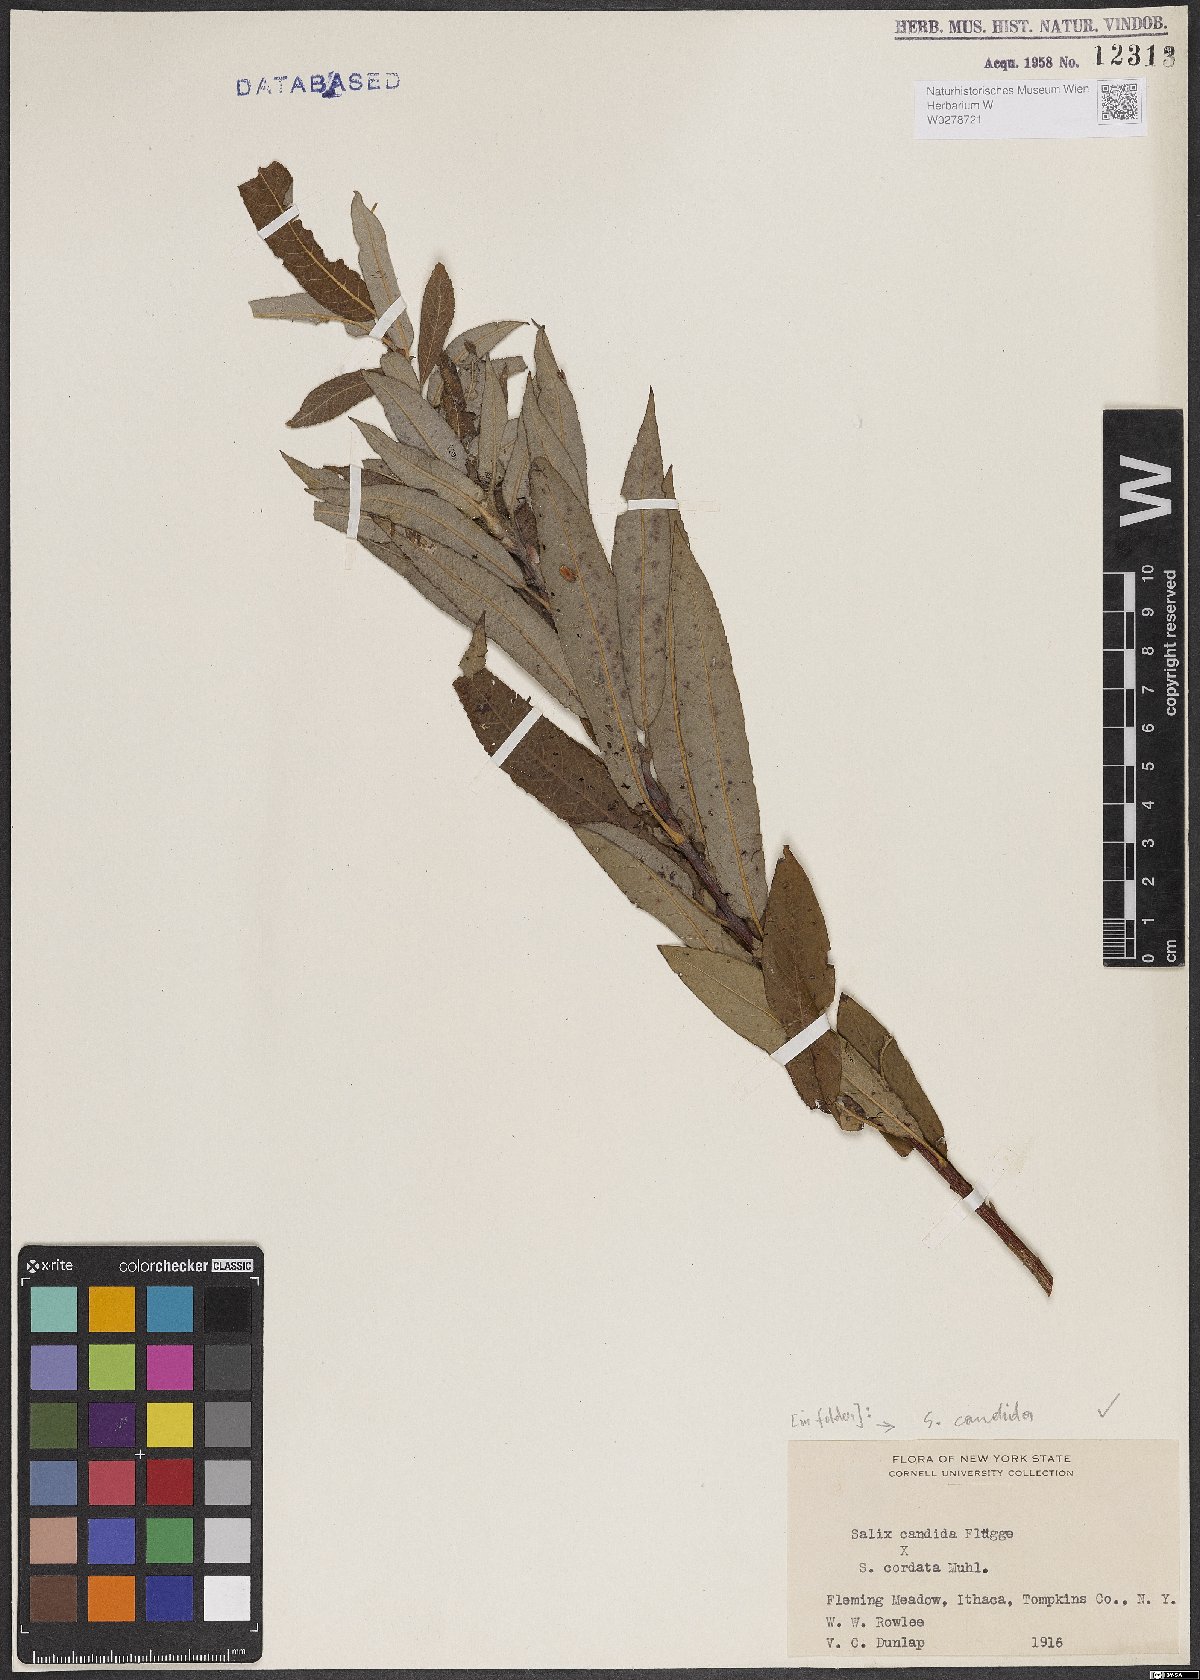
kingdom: Plantae
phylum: Tracheophyta
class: Magnoliopsida
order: Malpighiales
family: Salicaceae
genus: Salix
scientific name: Salix candida
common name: Hoary willow
